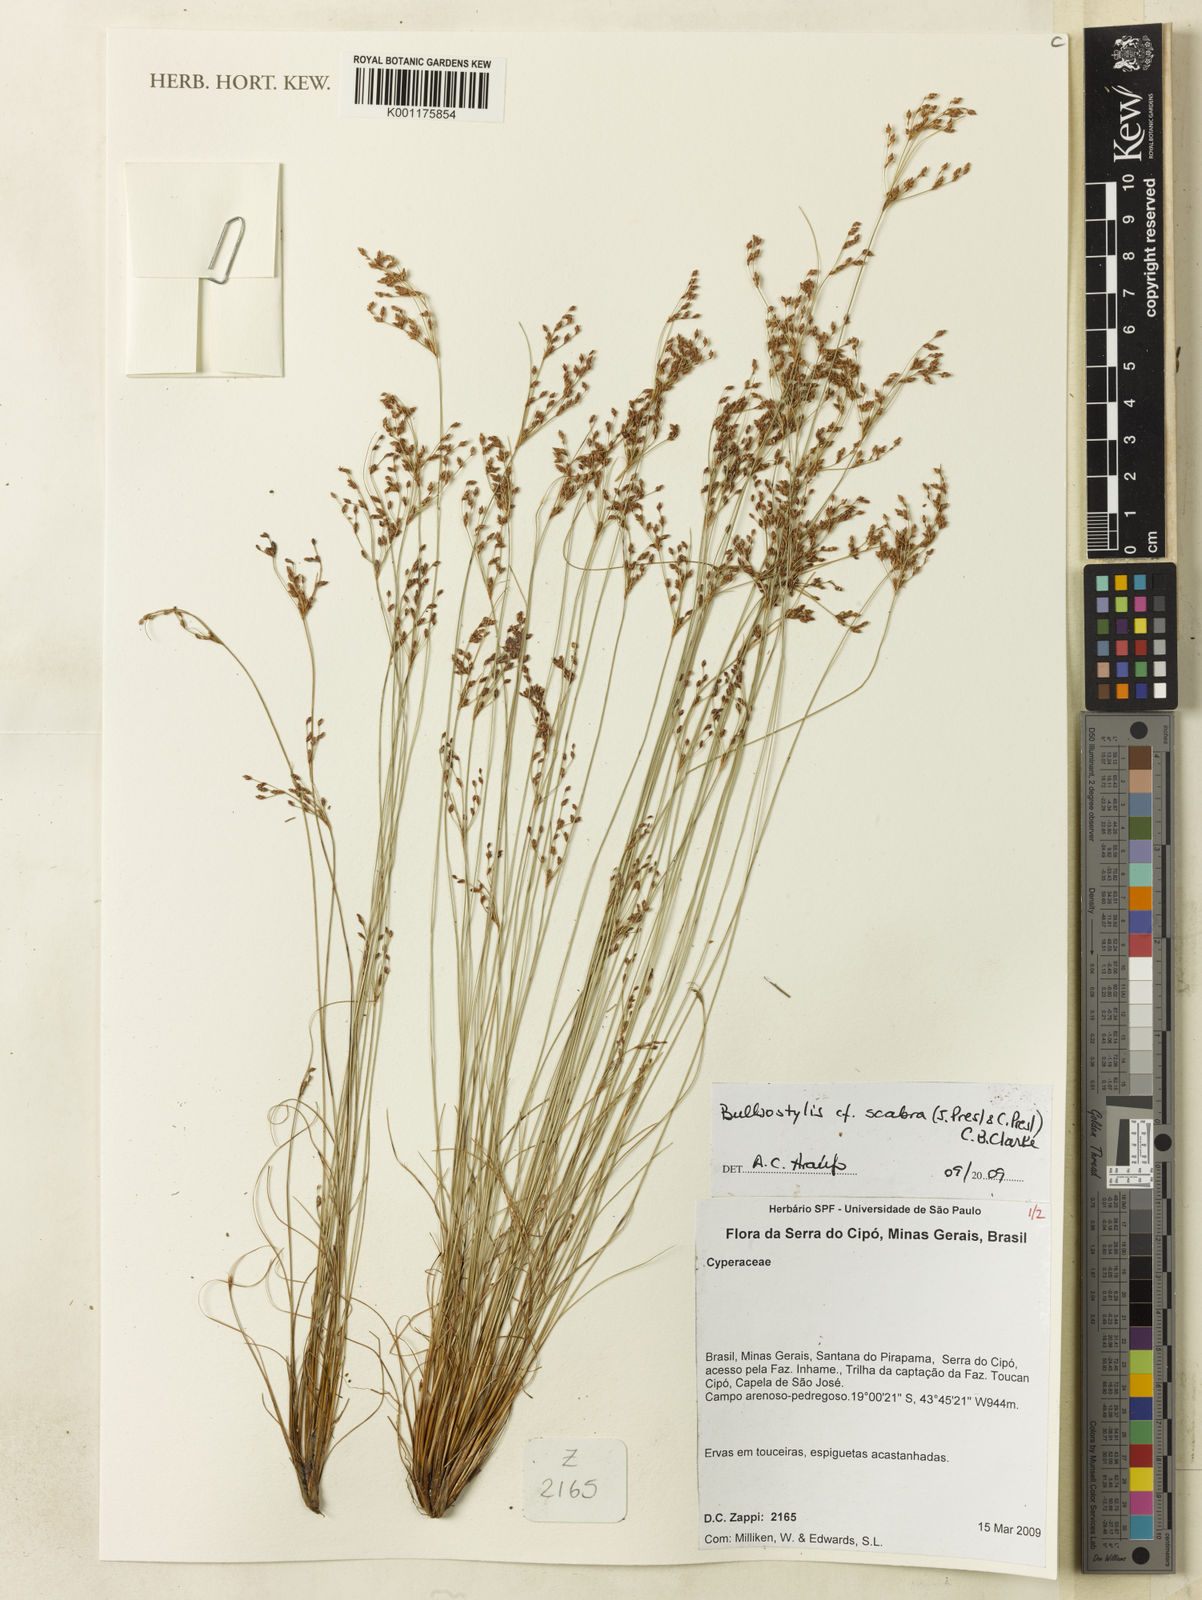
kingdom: Plantae
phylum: Tracheophyta
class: Liliopsida
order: Poales
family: Cyperaceae
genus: Bulbostylis
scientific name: Bulbostylis scabra
